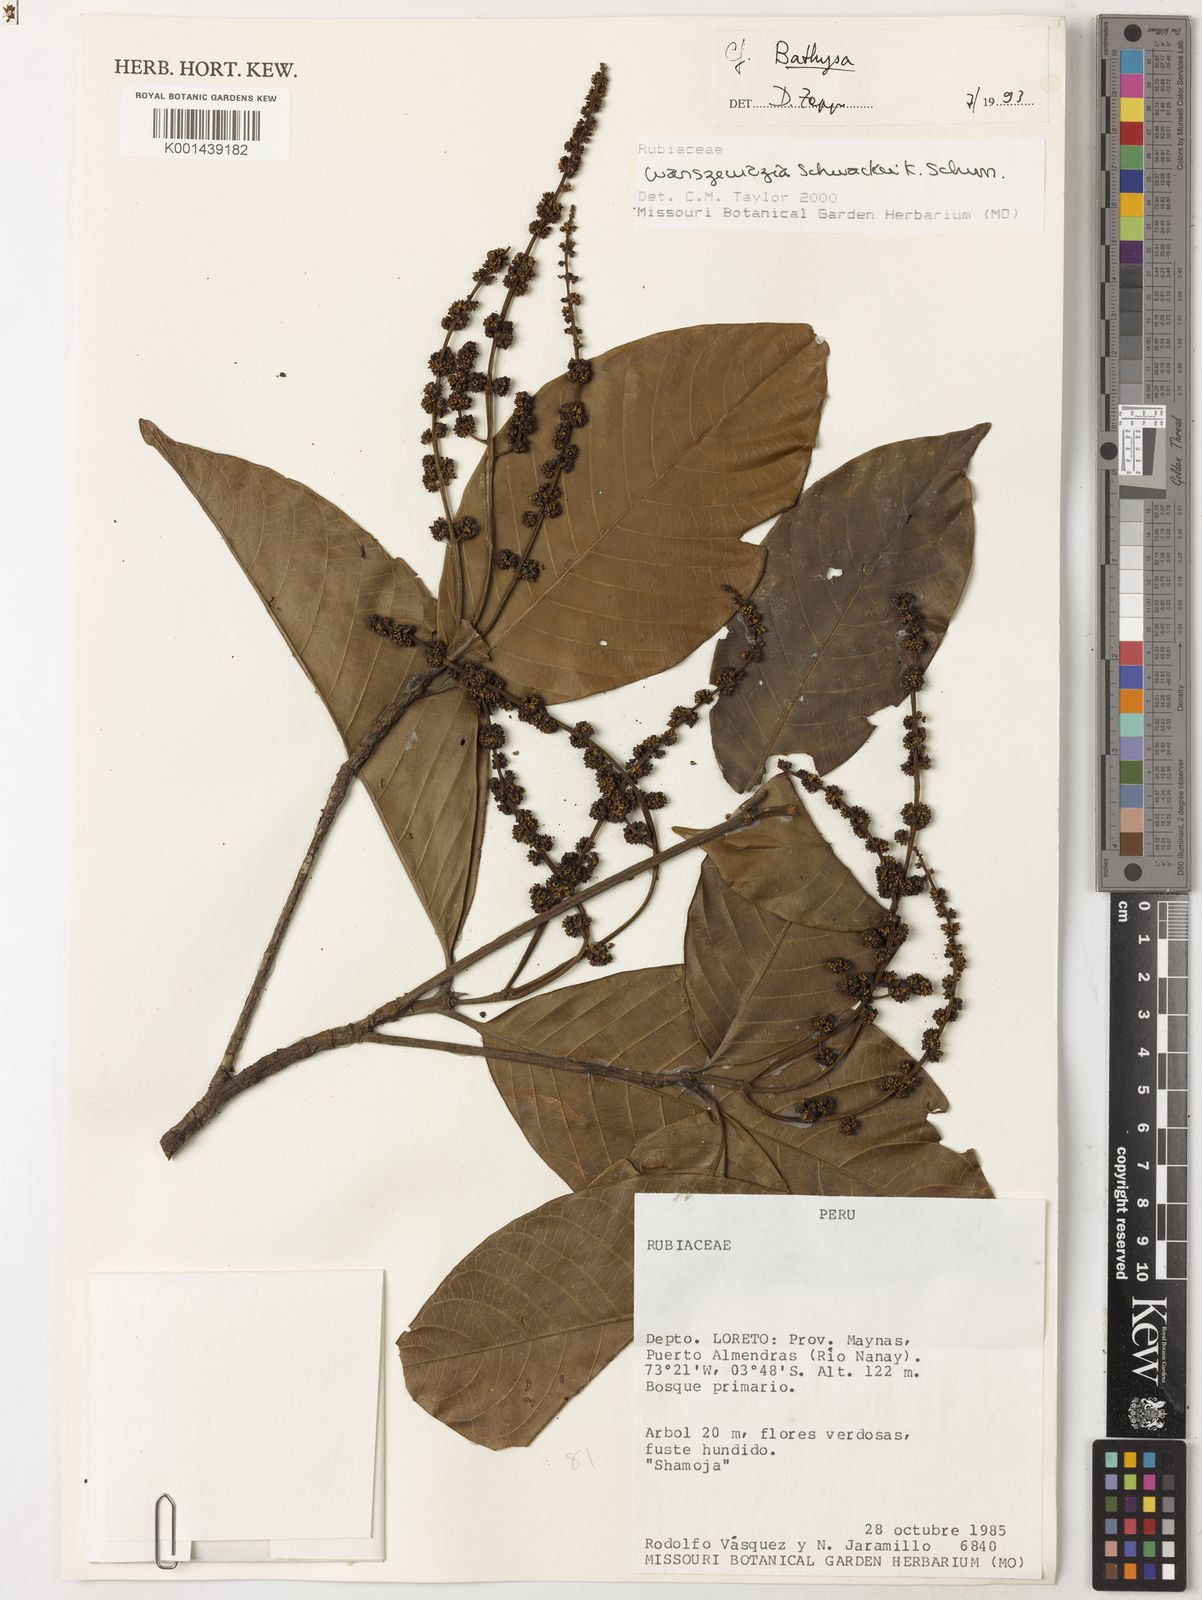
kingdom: Plantae
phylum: Tracheophyta
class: Magnoliopsida
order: Gentianales
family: Rubiaceae
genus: Warszewiczia
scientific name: Warszewiczia schwackei
